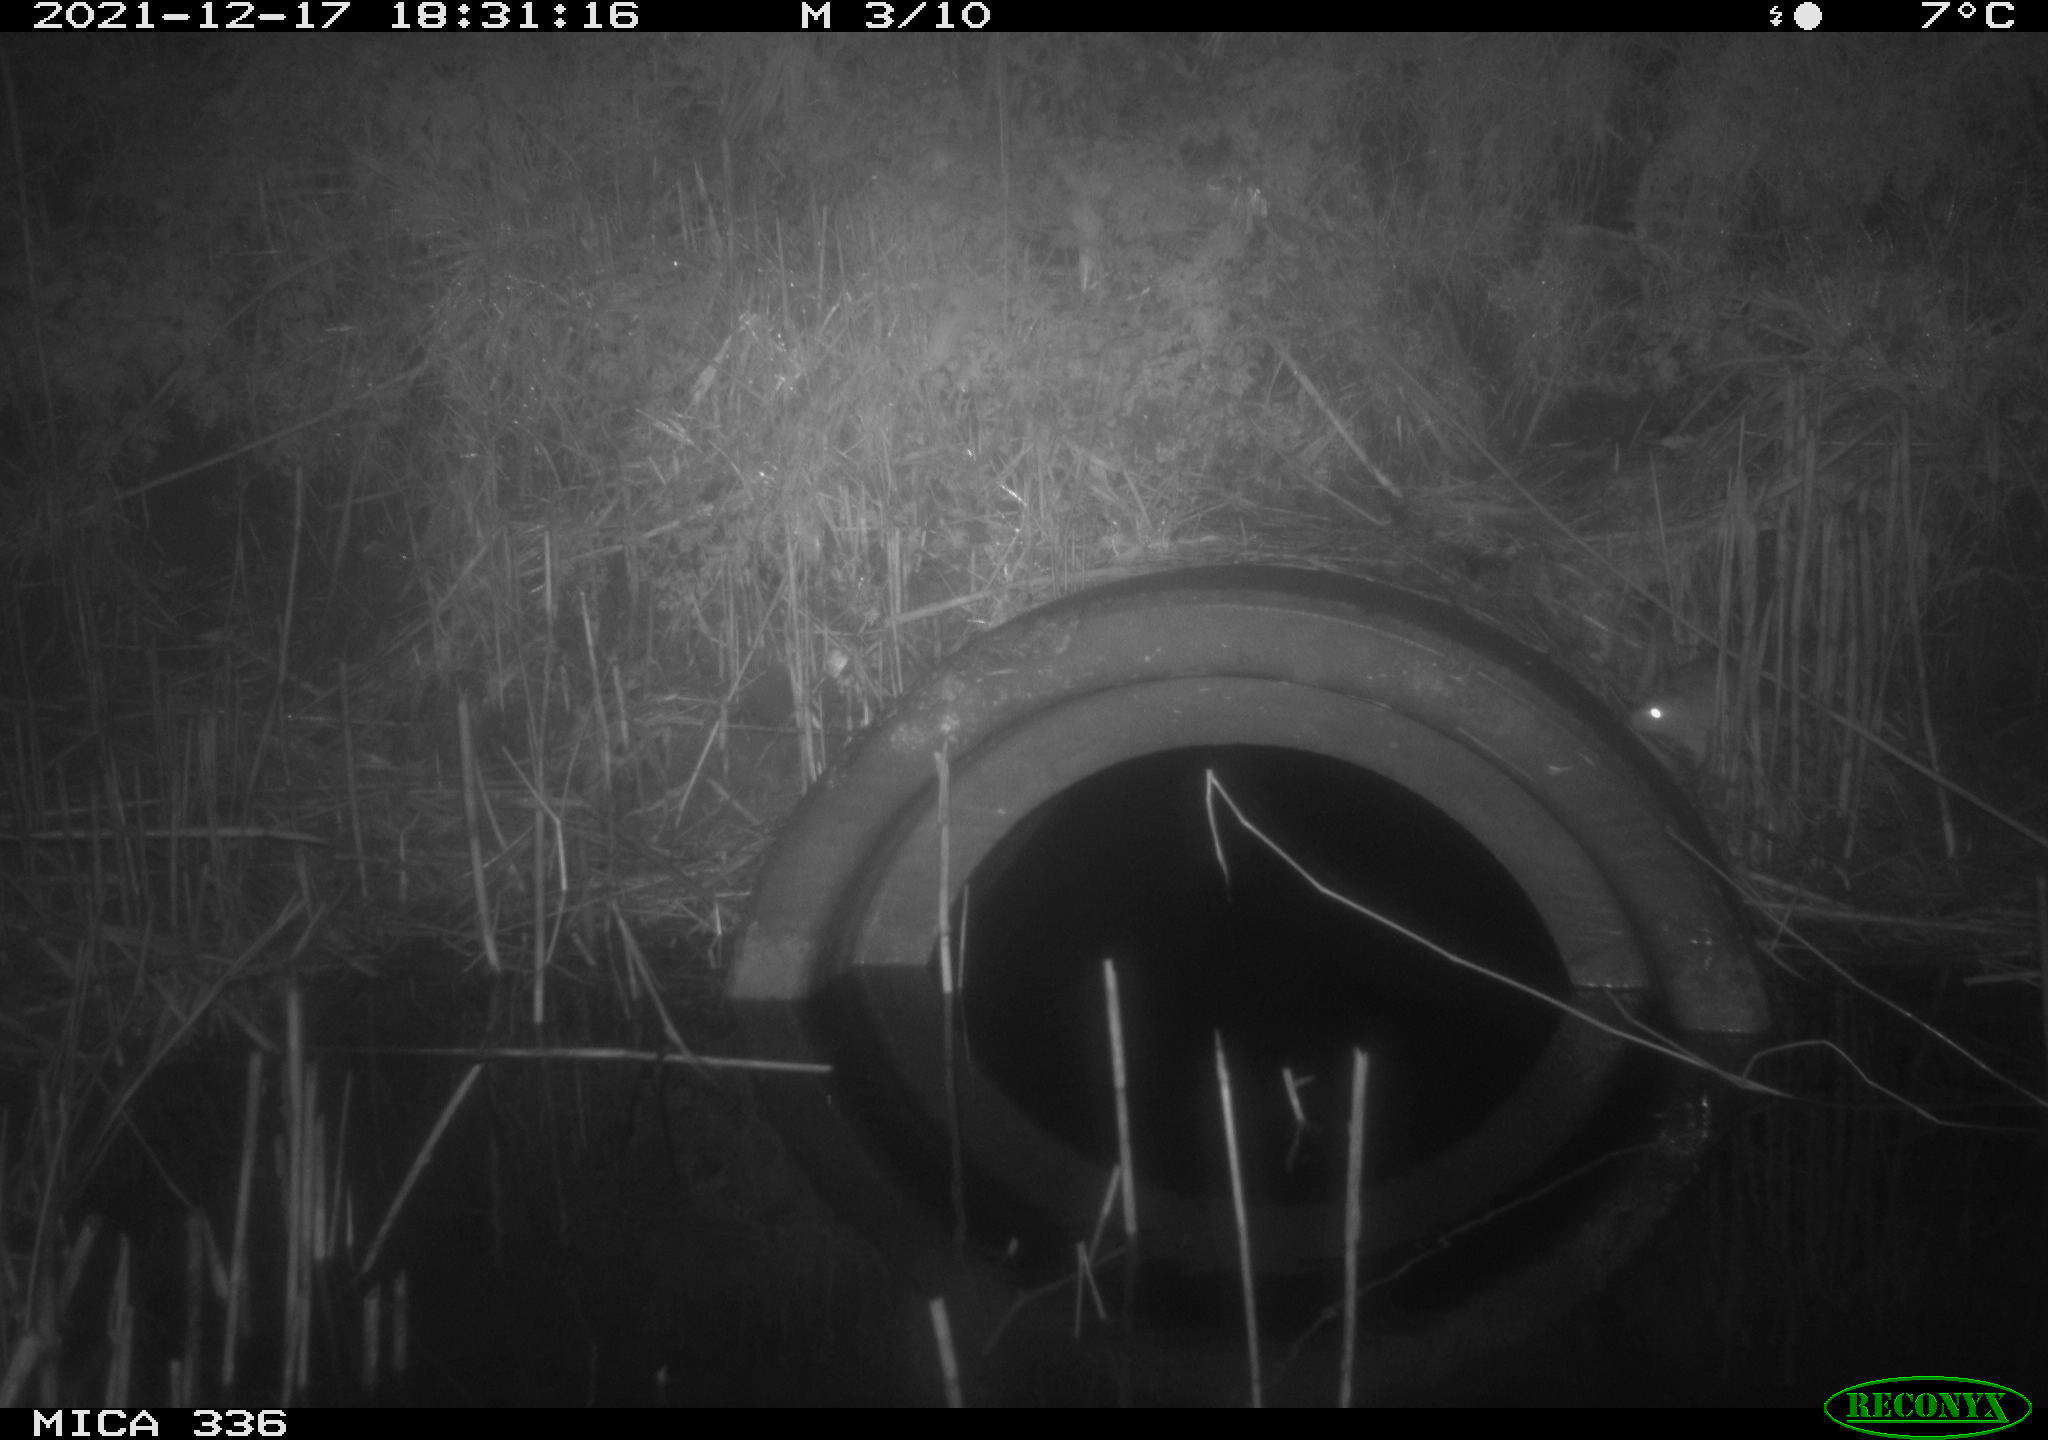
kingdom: Animalia
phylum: Chordata
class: Mammalia
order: Rodentia
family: Muridae
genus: Rattus
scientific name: Rattus norvegicus
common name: Brown rat
